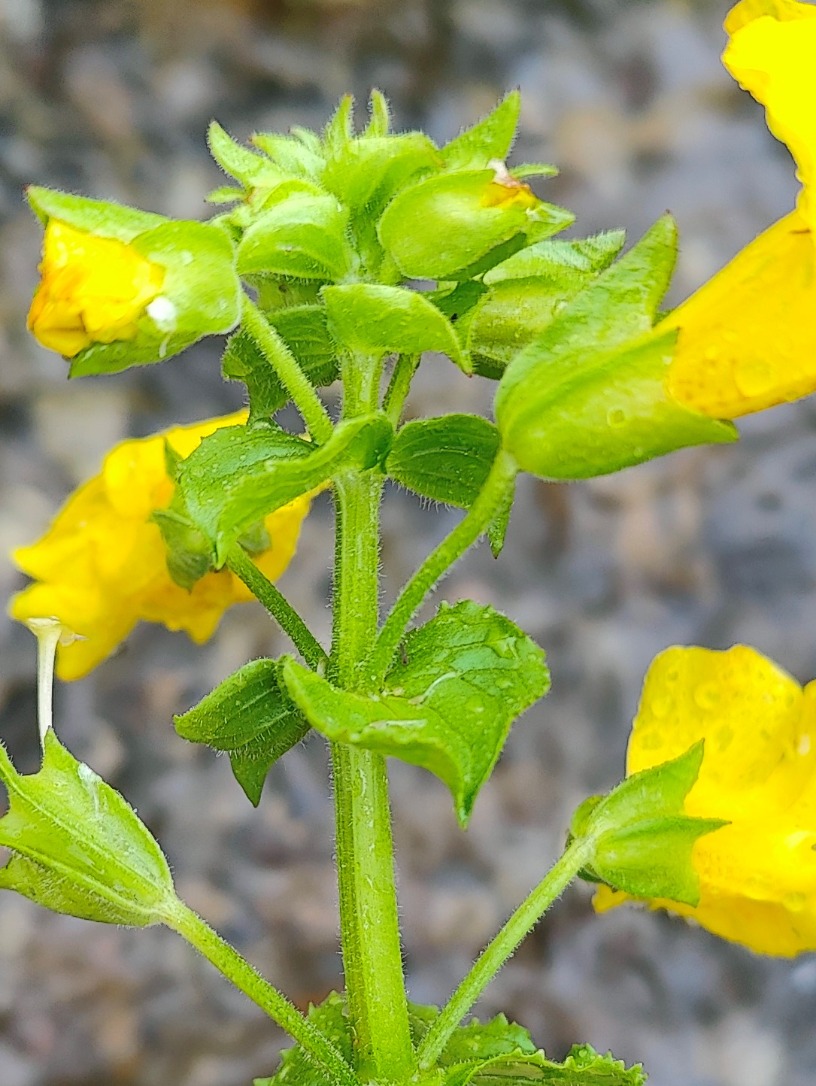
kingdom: Plantae
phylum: Tracheophyta
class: Magnoliopsida
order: Lamiales
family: Phrymaceae
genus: Erythranthe
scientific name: Erythranthe guttata
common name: Abeblomst
